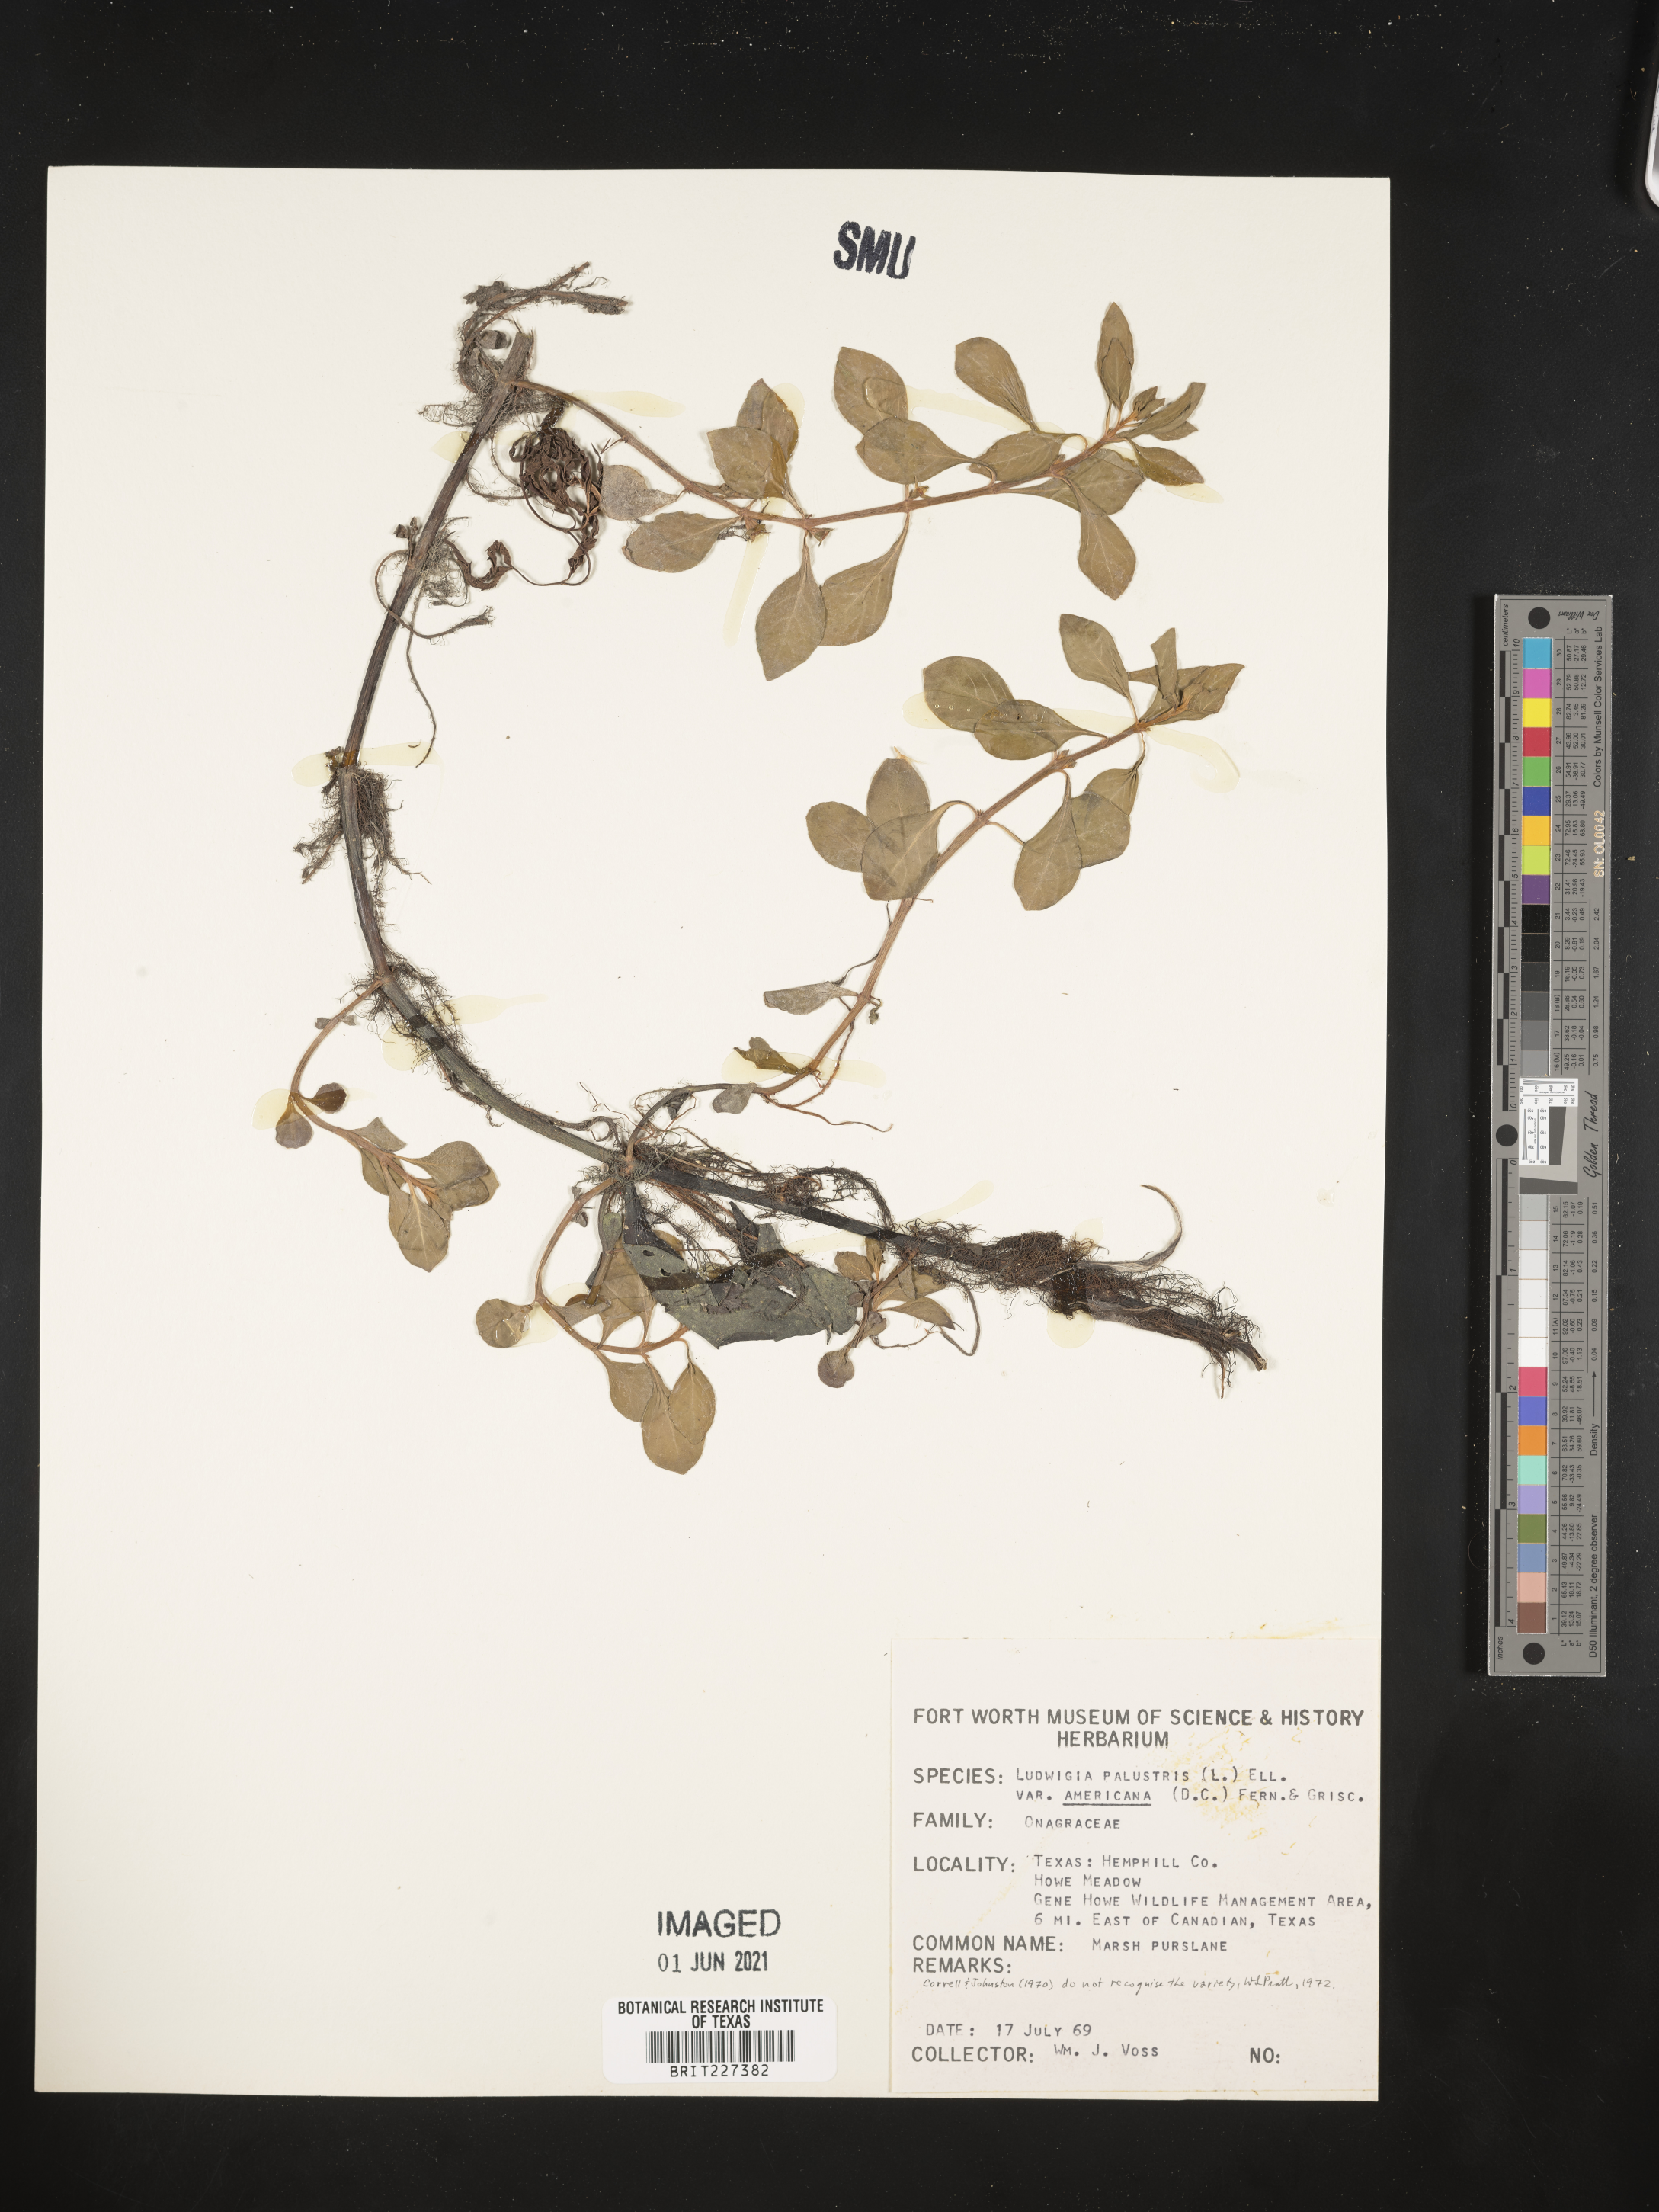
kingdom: Plantae
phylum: Tracheophyta
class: Magnoliopsida
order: Myrtales
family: Onagraceae
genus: Ludwigia
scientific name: Ludwigia palustris
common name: Hampshire-purslane
